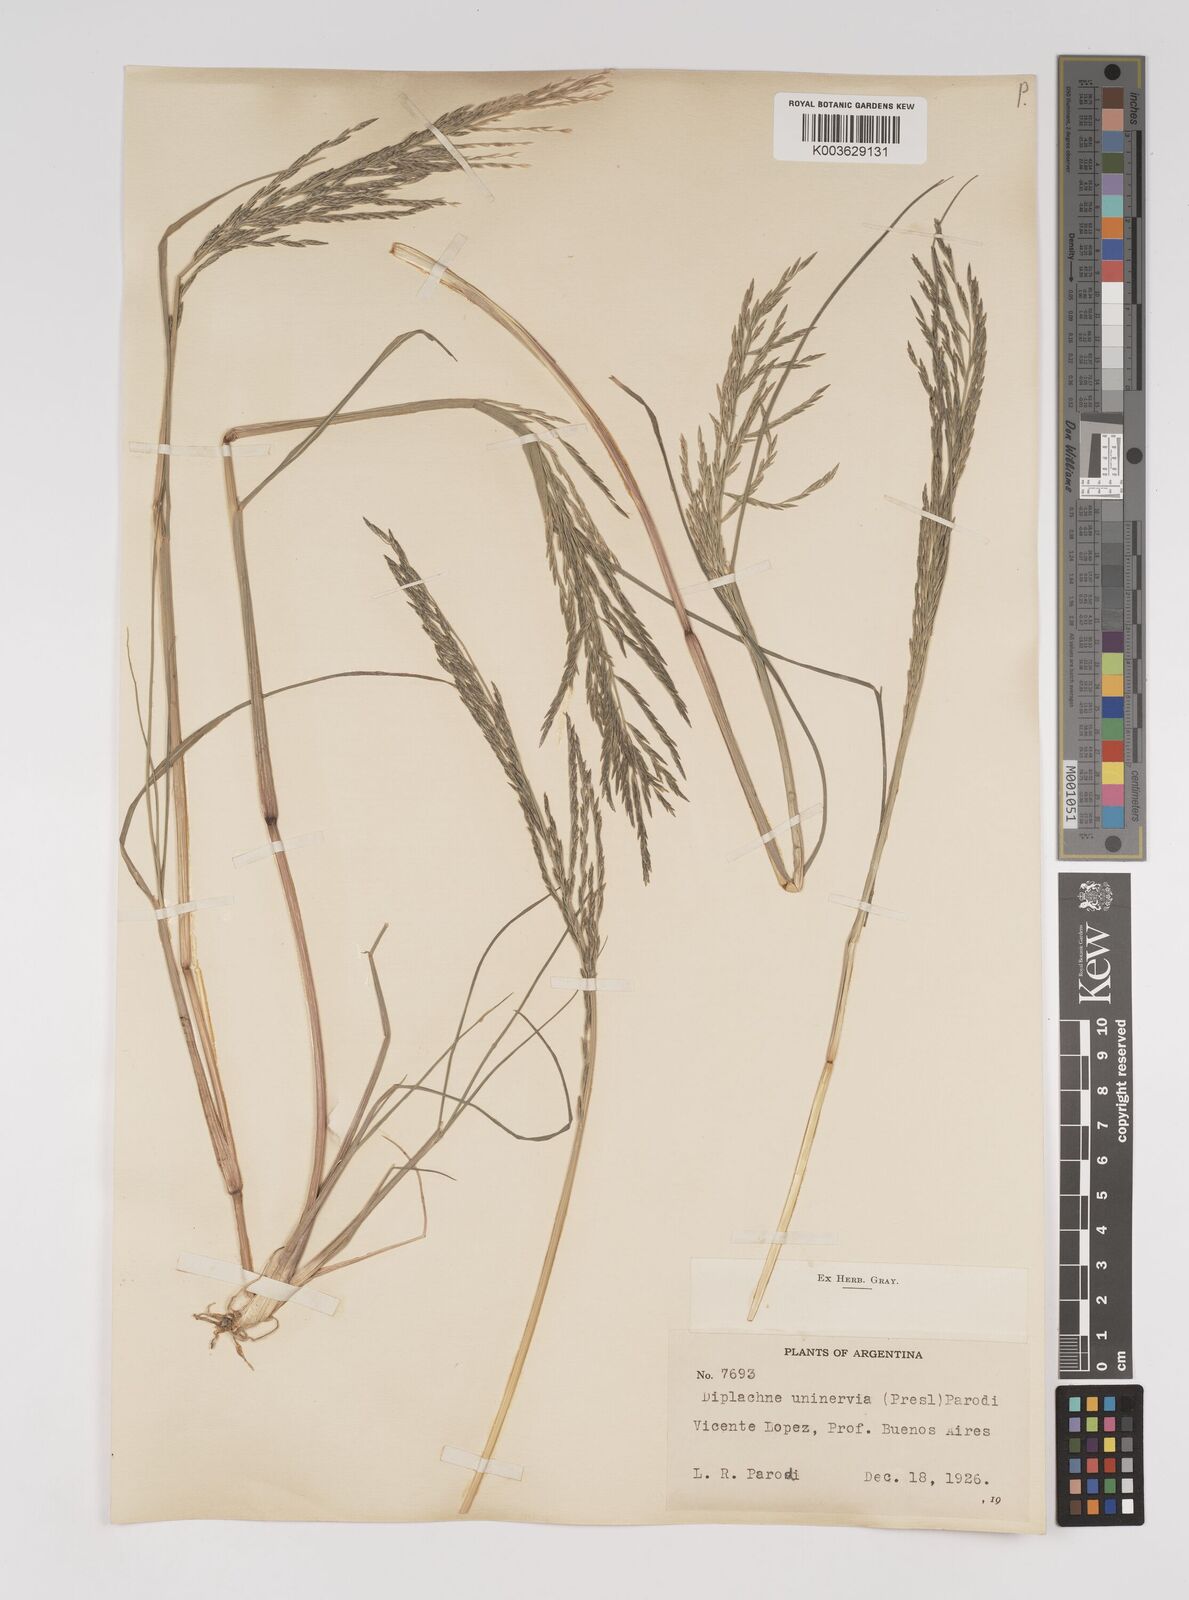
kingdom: Plantae
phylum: Tracheophyta
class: Liliopsida
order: Poales
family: Poaceae
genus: Diplachne
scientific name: Diplachne fusca
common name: Brown beetle grass
